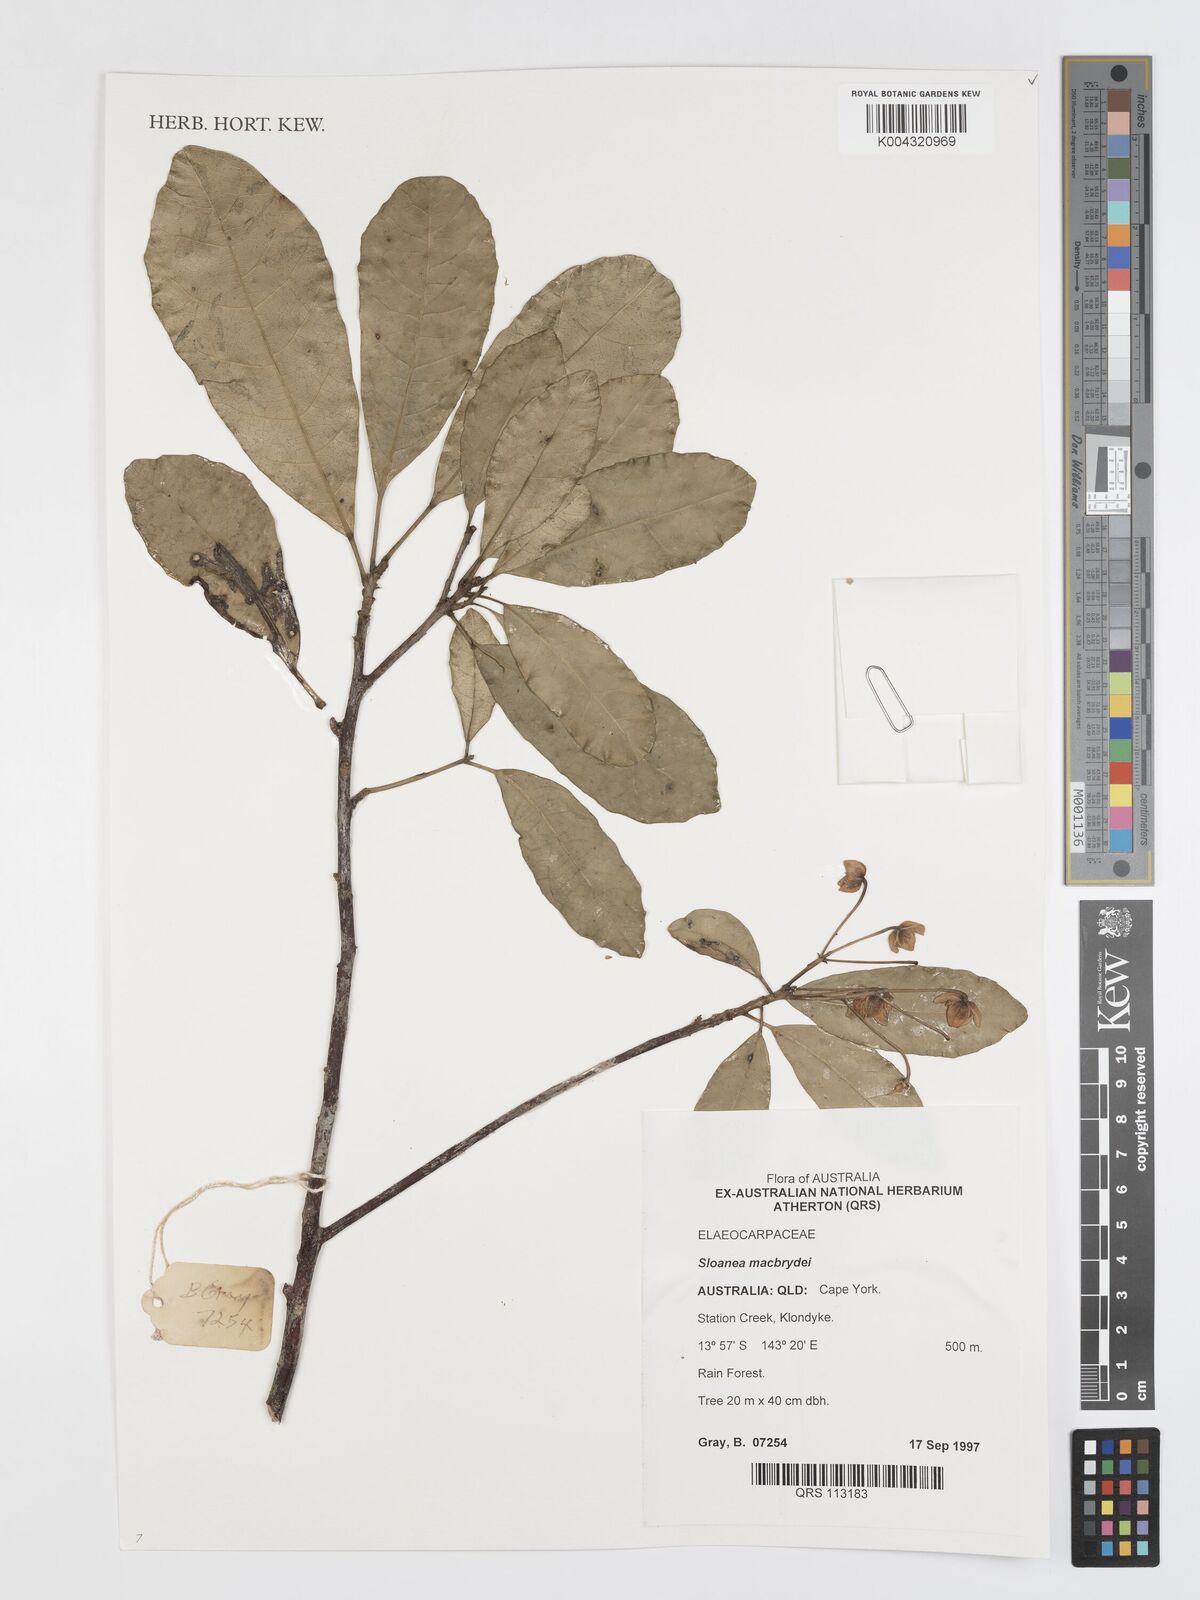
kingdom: Plantae
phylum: Tracheophyta
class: Magnoliopsida
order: Oxalidales
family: Elaeocarpaceae
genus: Sloanea
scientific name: Sloanea macbrydei
